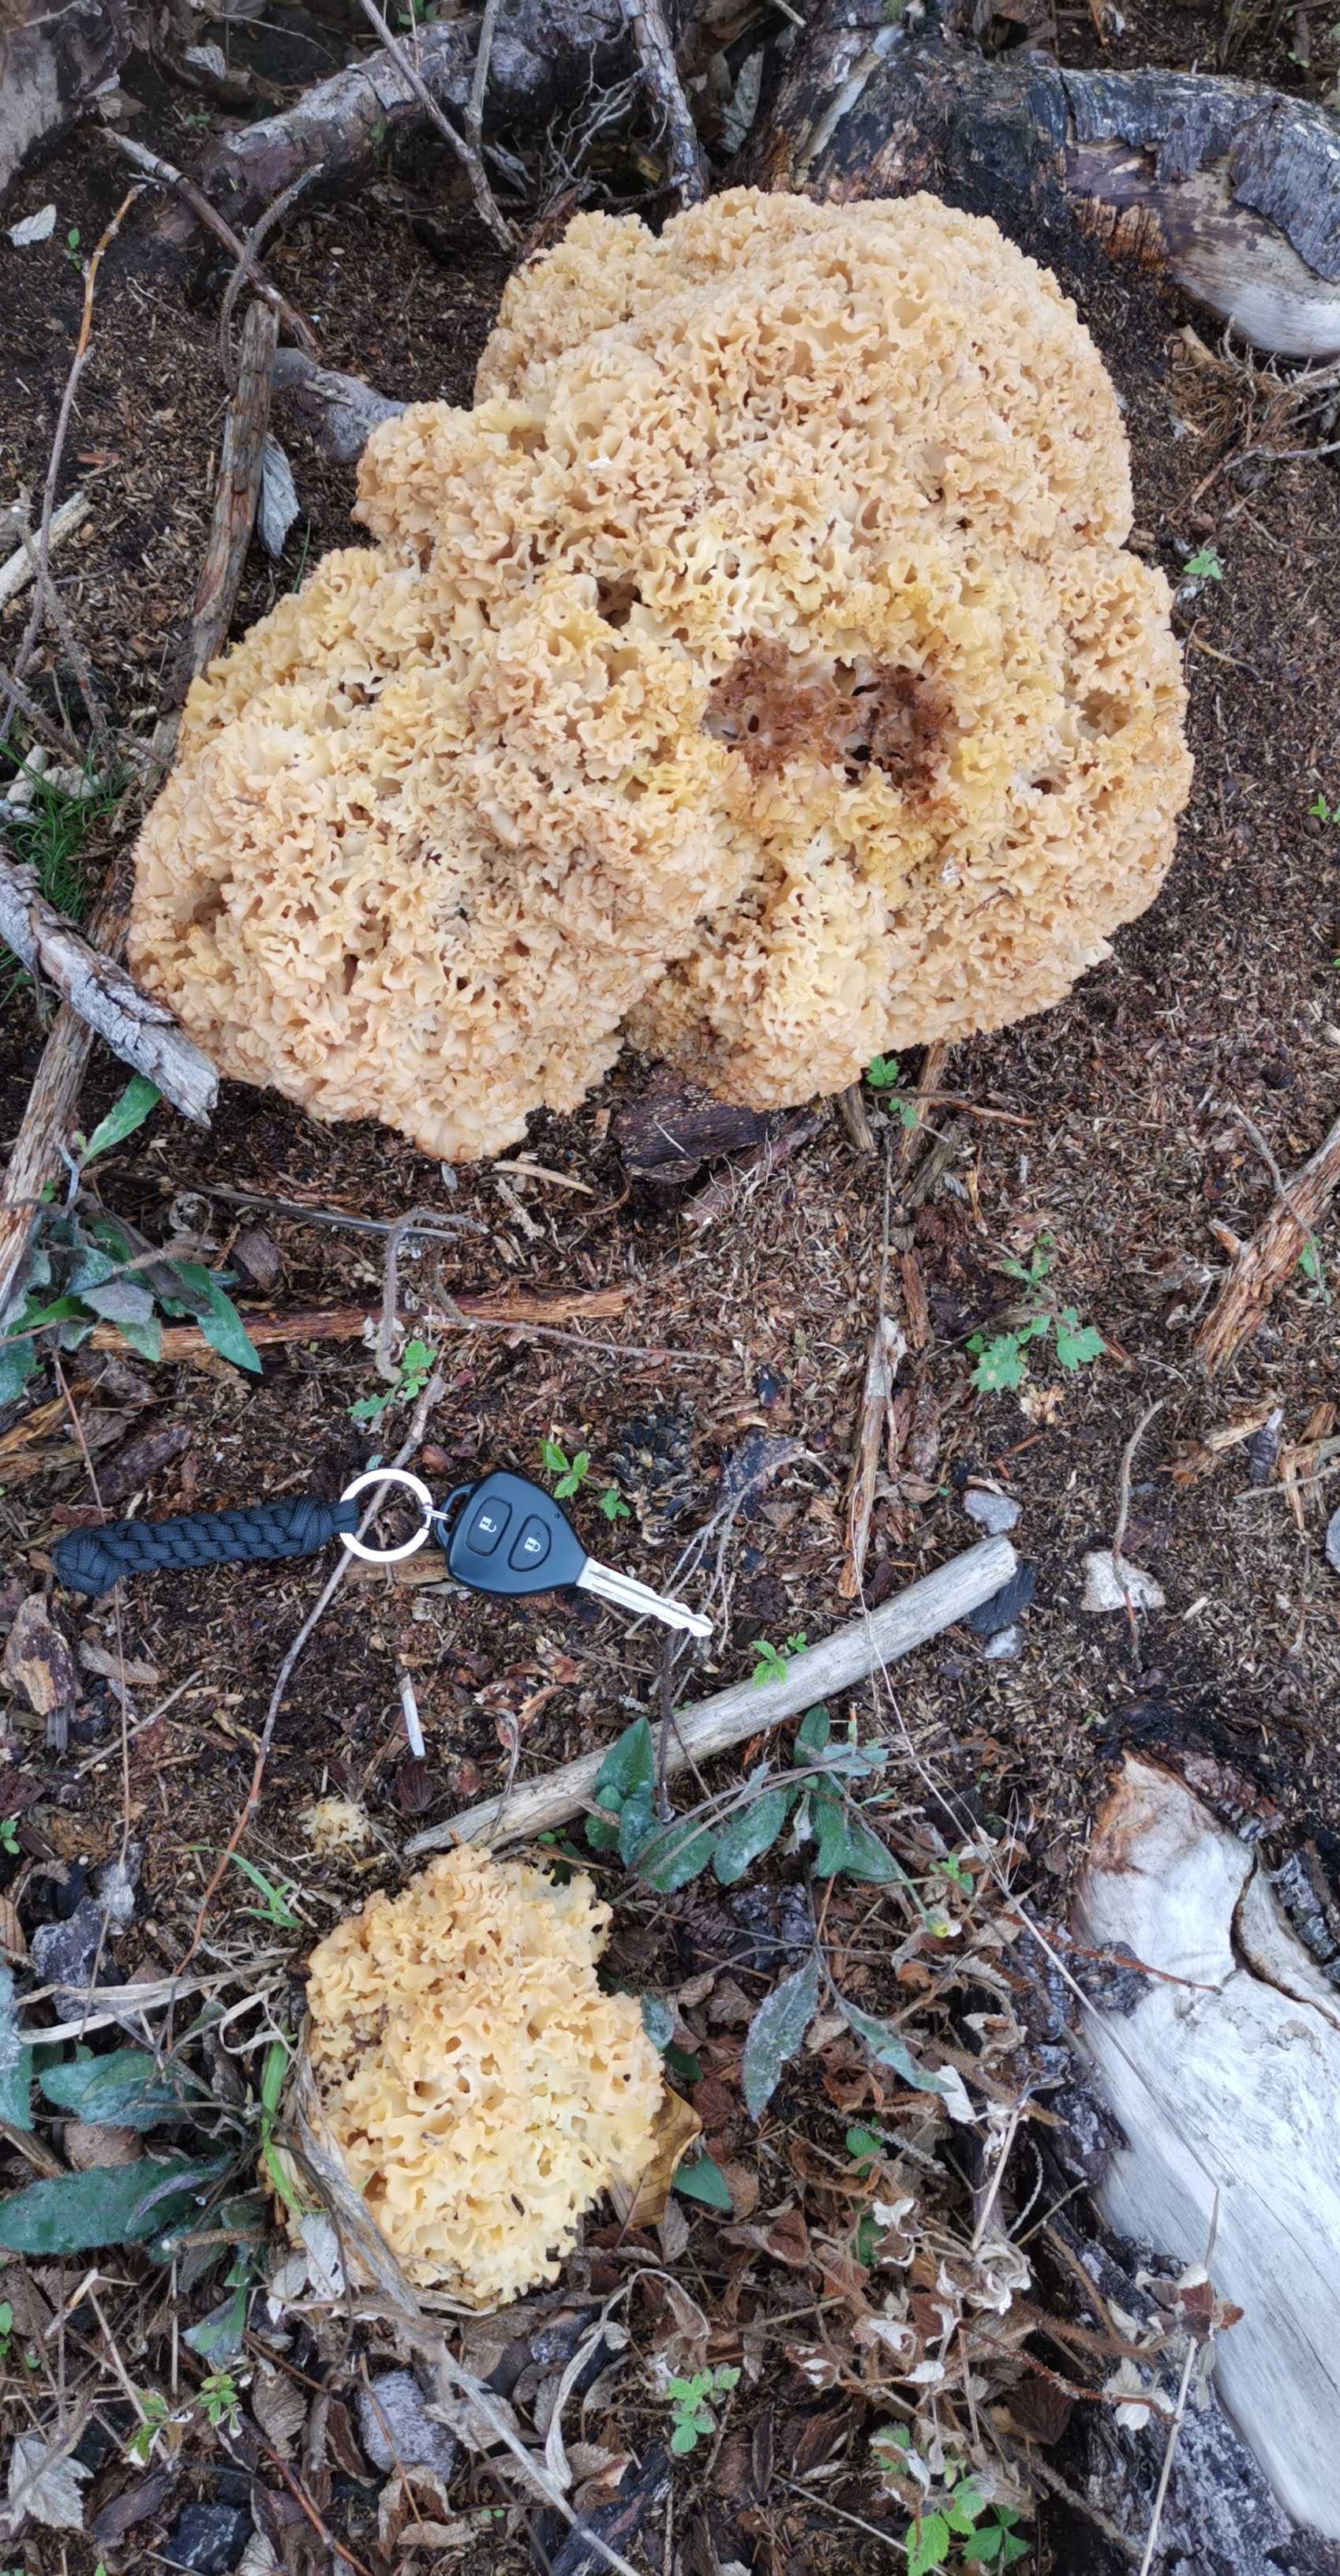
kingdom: Fungi
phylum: Basidiomycota
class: Agaricomycetes
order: Polyporales
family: Sparassidaceae
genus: Sparassis
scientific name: Sparassis crispa
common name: kruset blomkålssvamp
